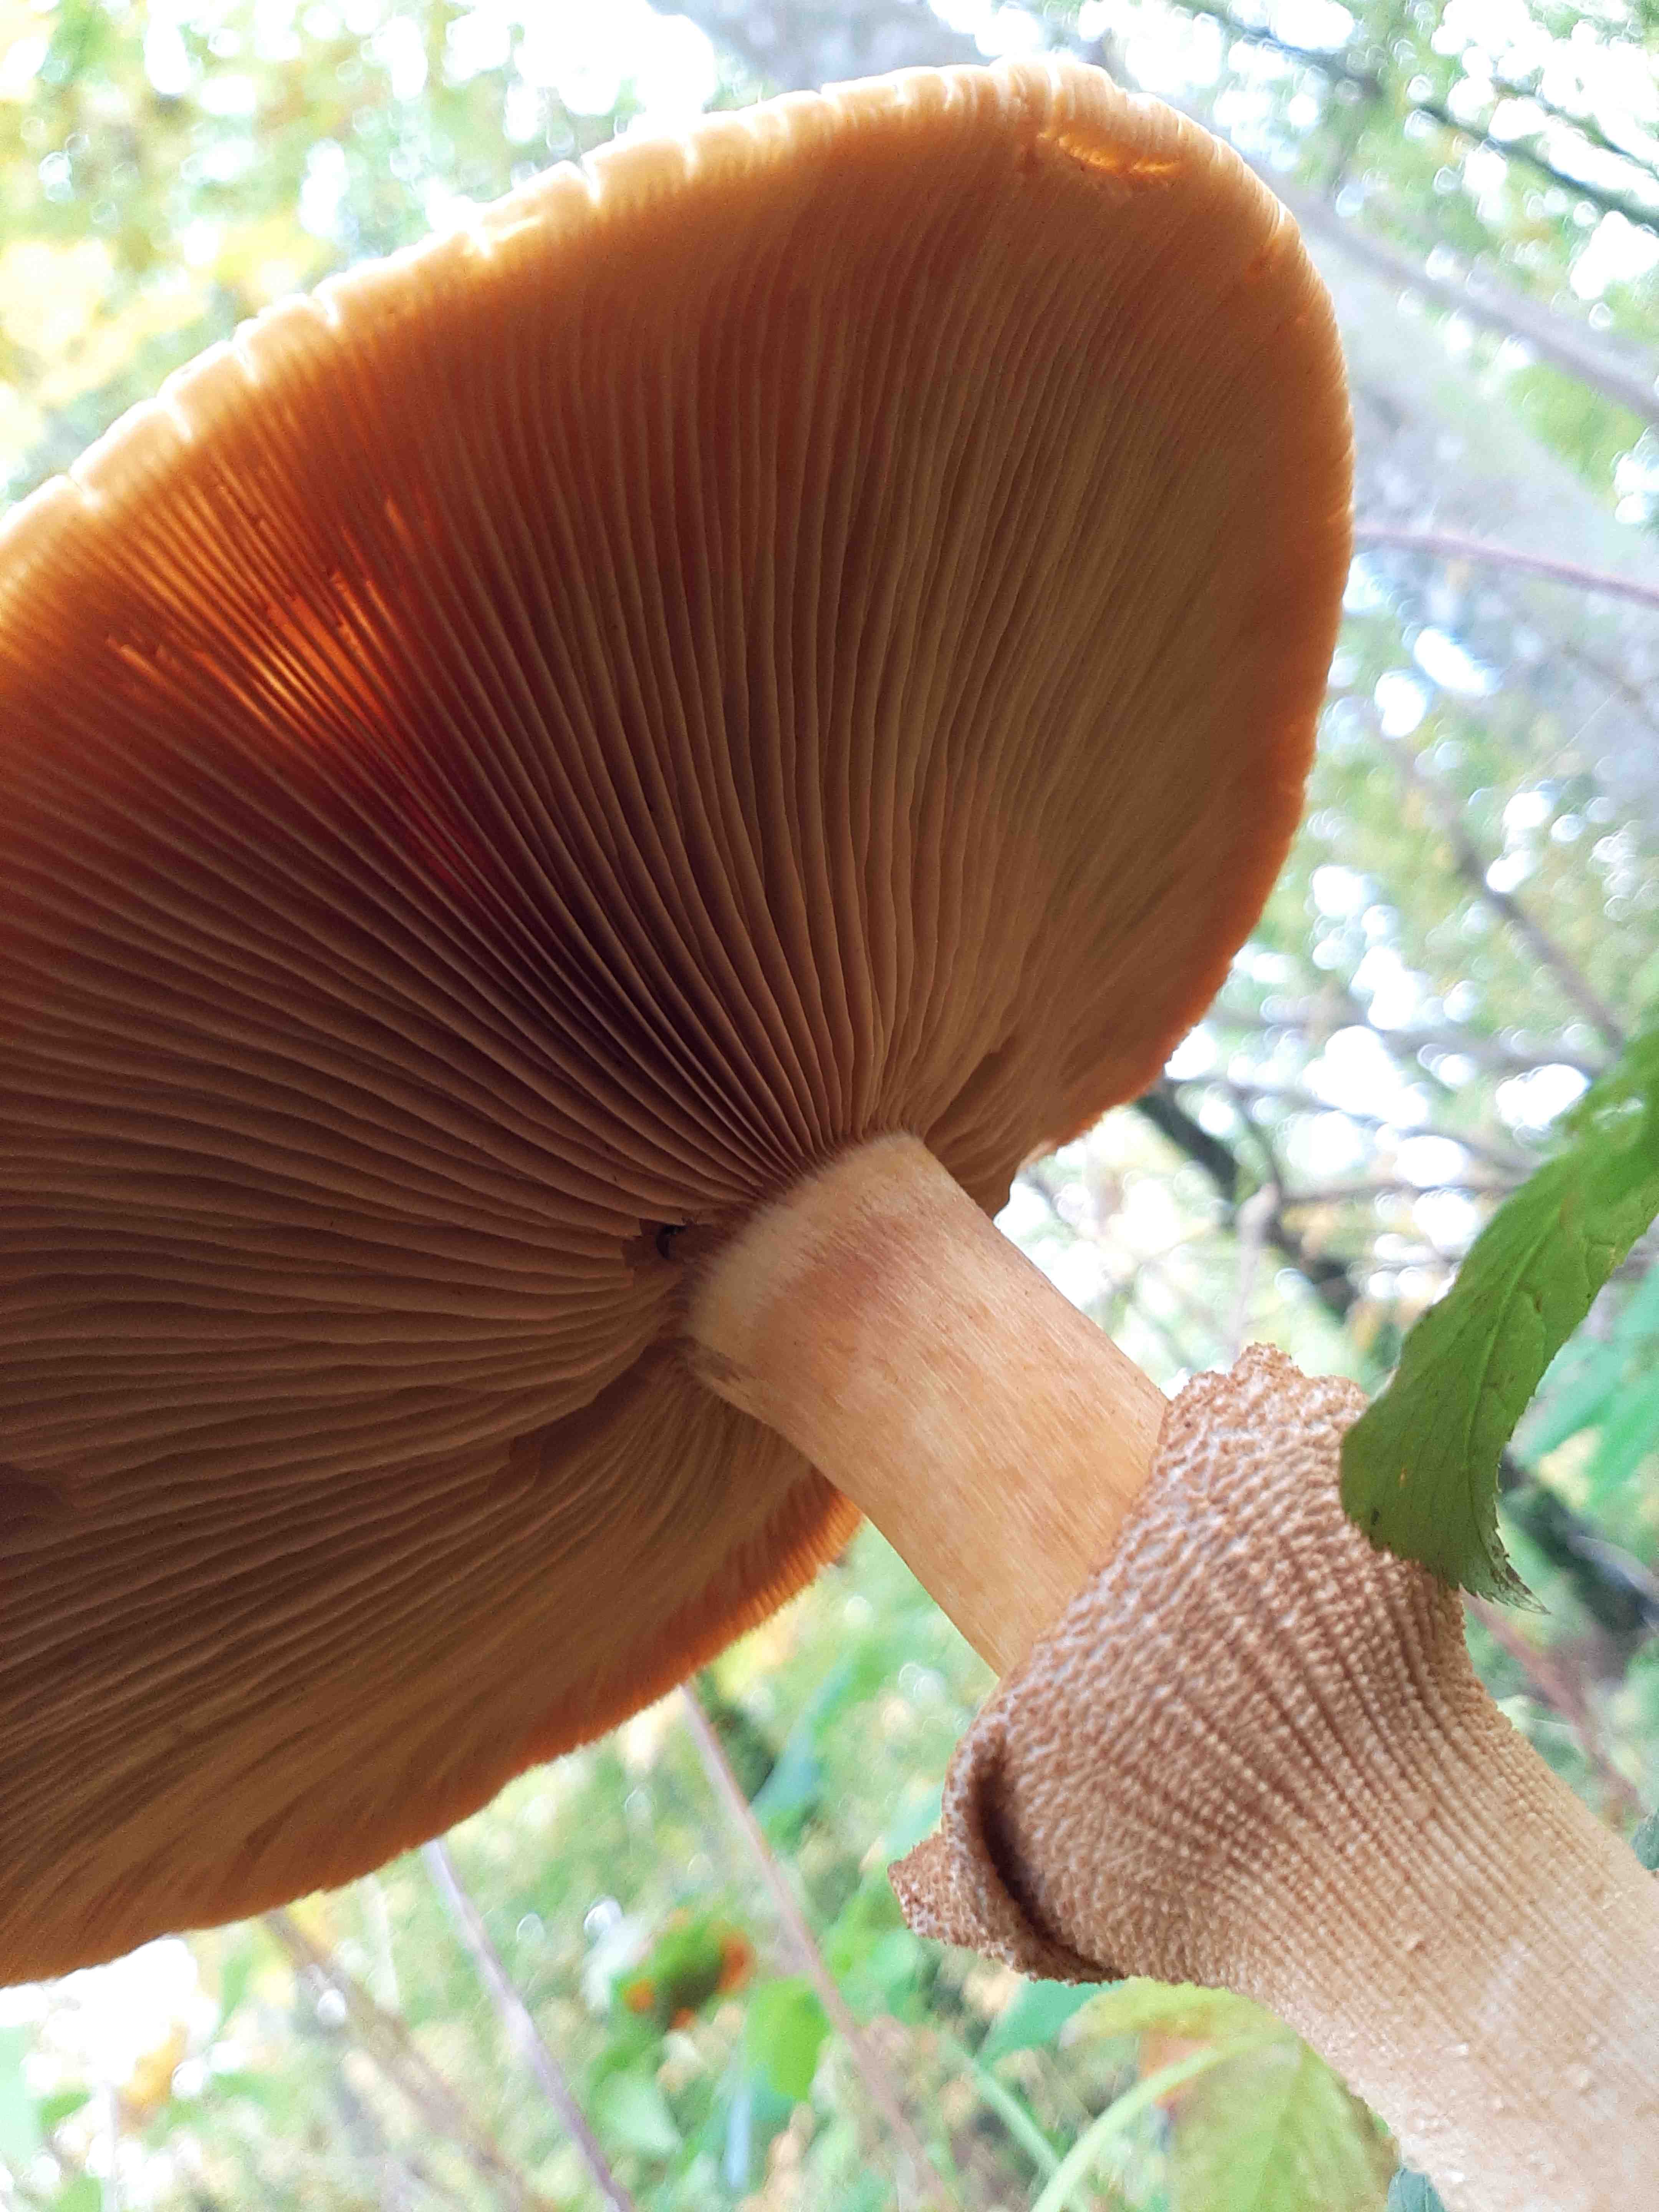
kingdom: Fungi
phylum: Basidiomycota
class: Agaricomycetes
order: Agaricales
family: Tricholomataceae
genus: Phaeolepiota
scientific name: Phaeolepiota aurea
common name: gyldenhat
